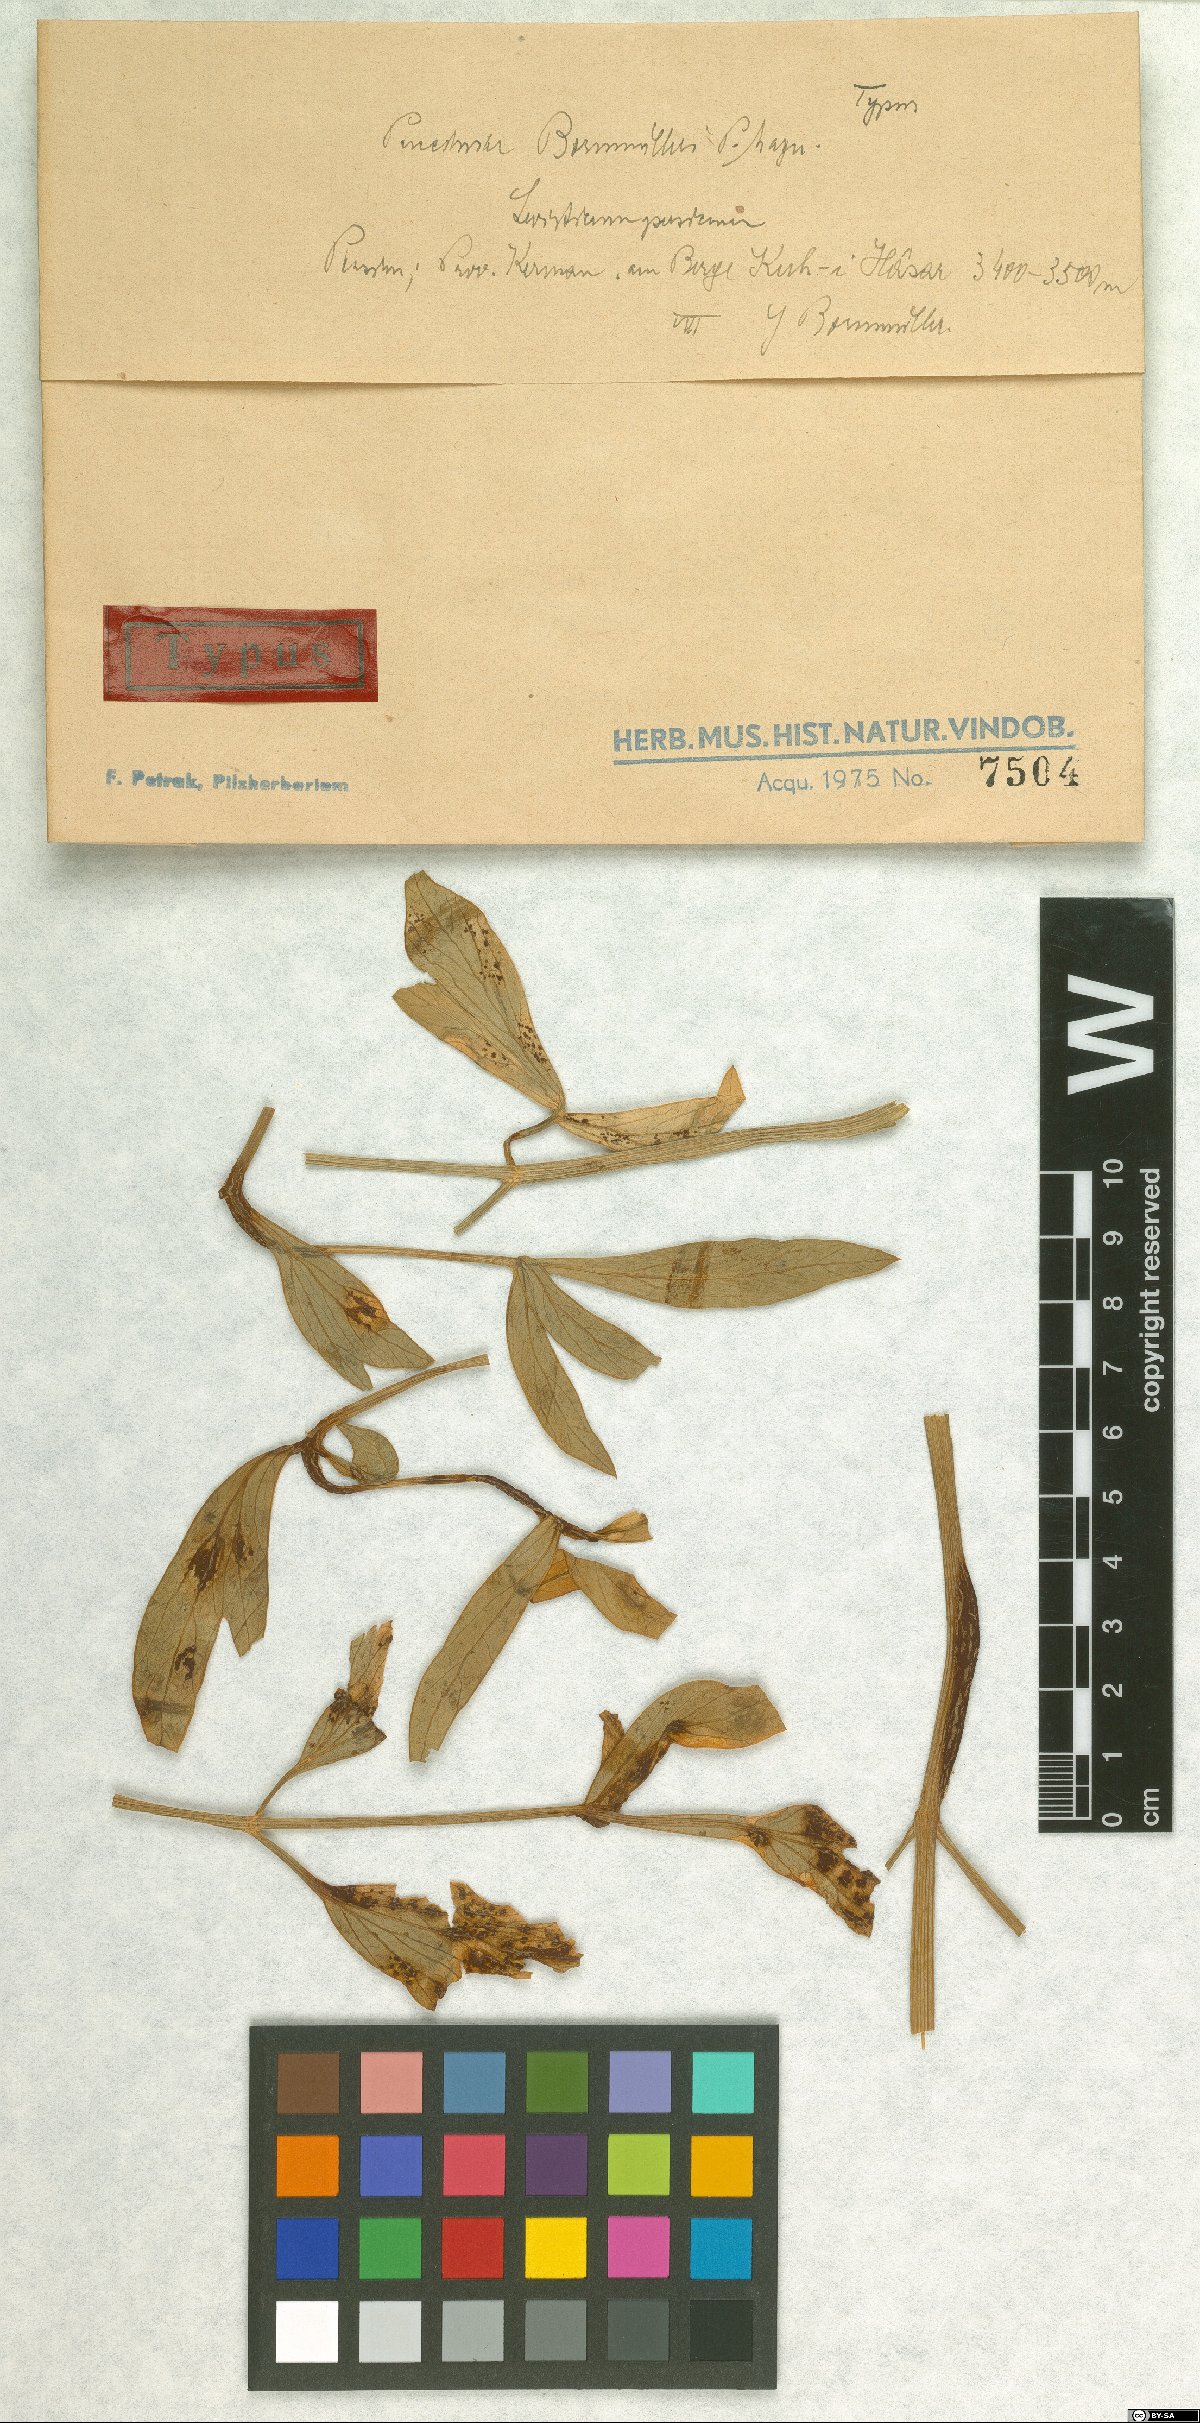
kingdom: Fungi
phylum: Basidiomycota
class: Pucciniomycetes
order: Pucciniales
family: Pucciniaceae
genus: Puccinia
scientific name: Puccinia bornmuelleri
